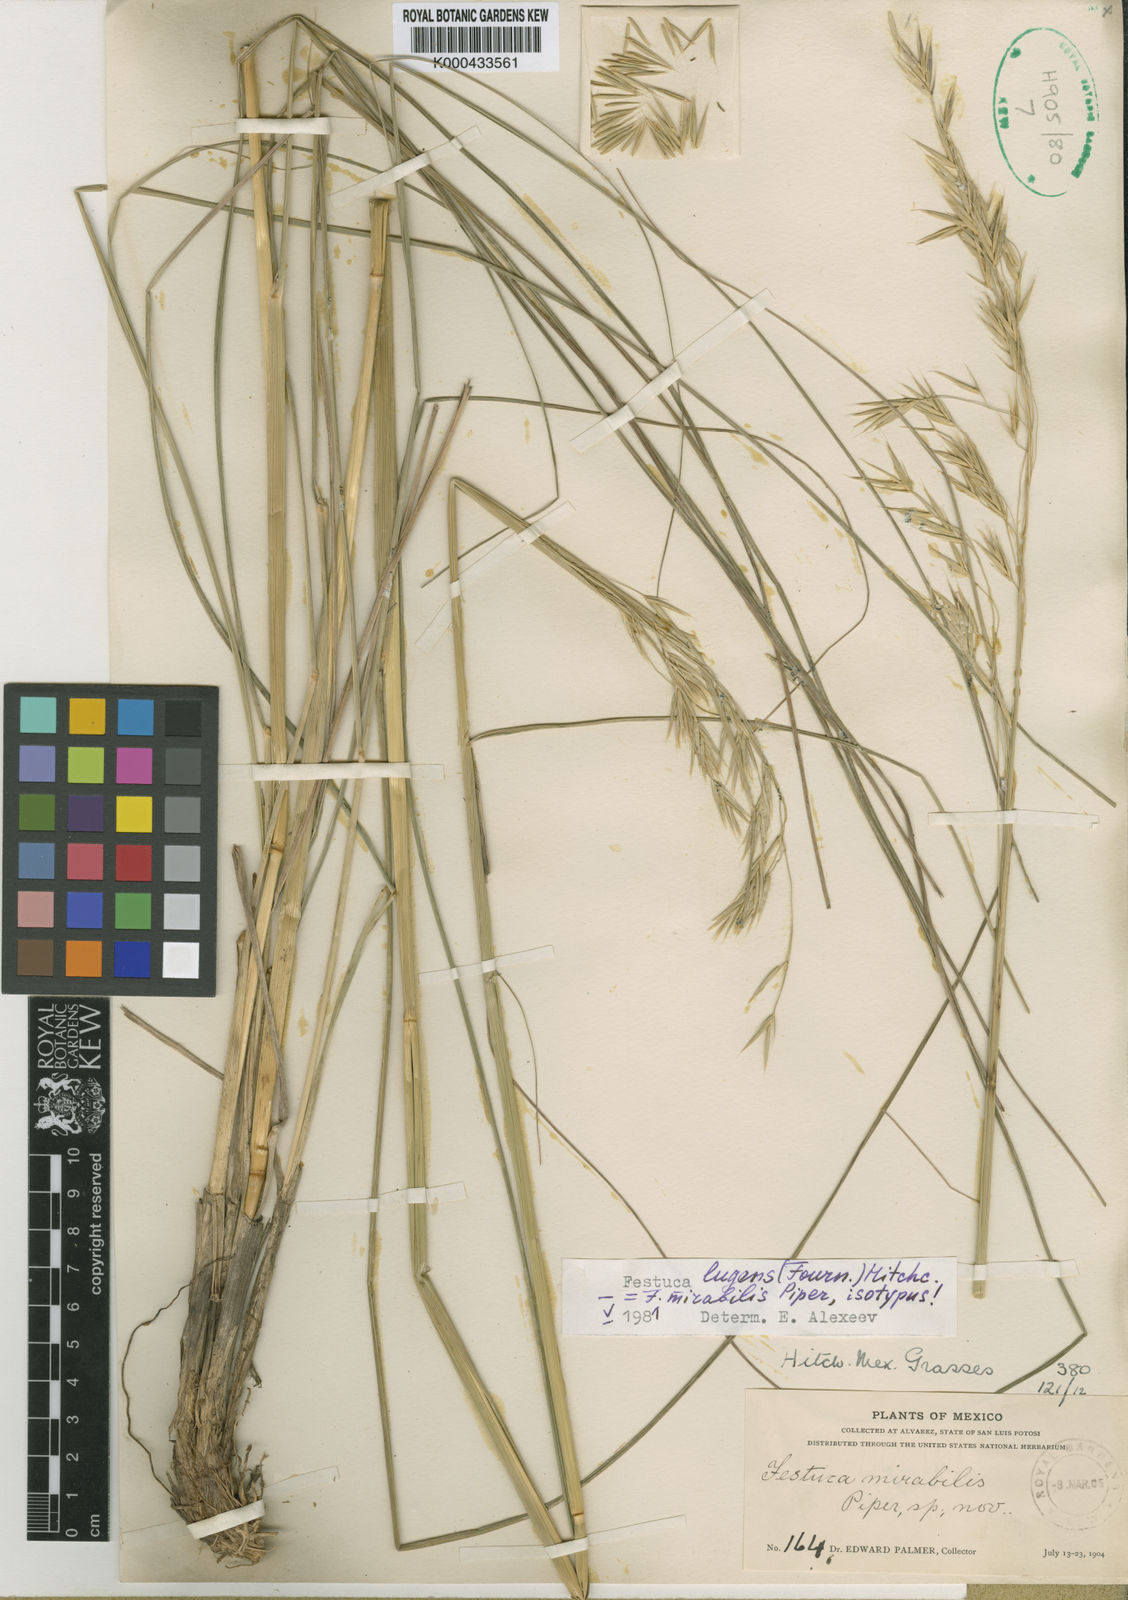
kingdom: Plantae
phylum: Tracheophyta
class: Liliopsida
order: Poales
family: Poaceae
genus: Festuca
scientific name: Festuca
